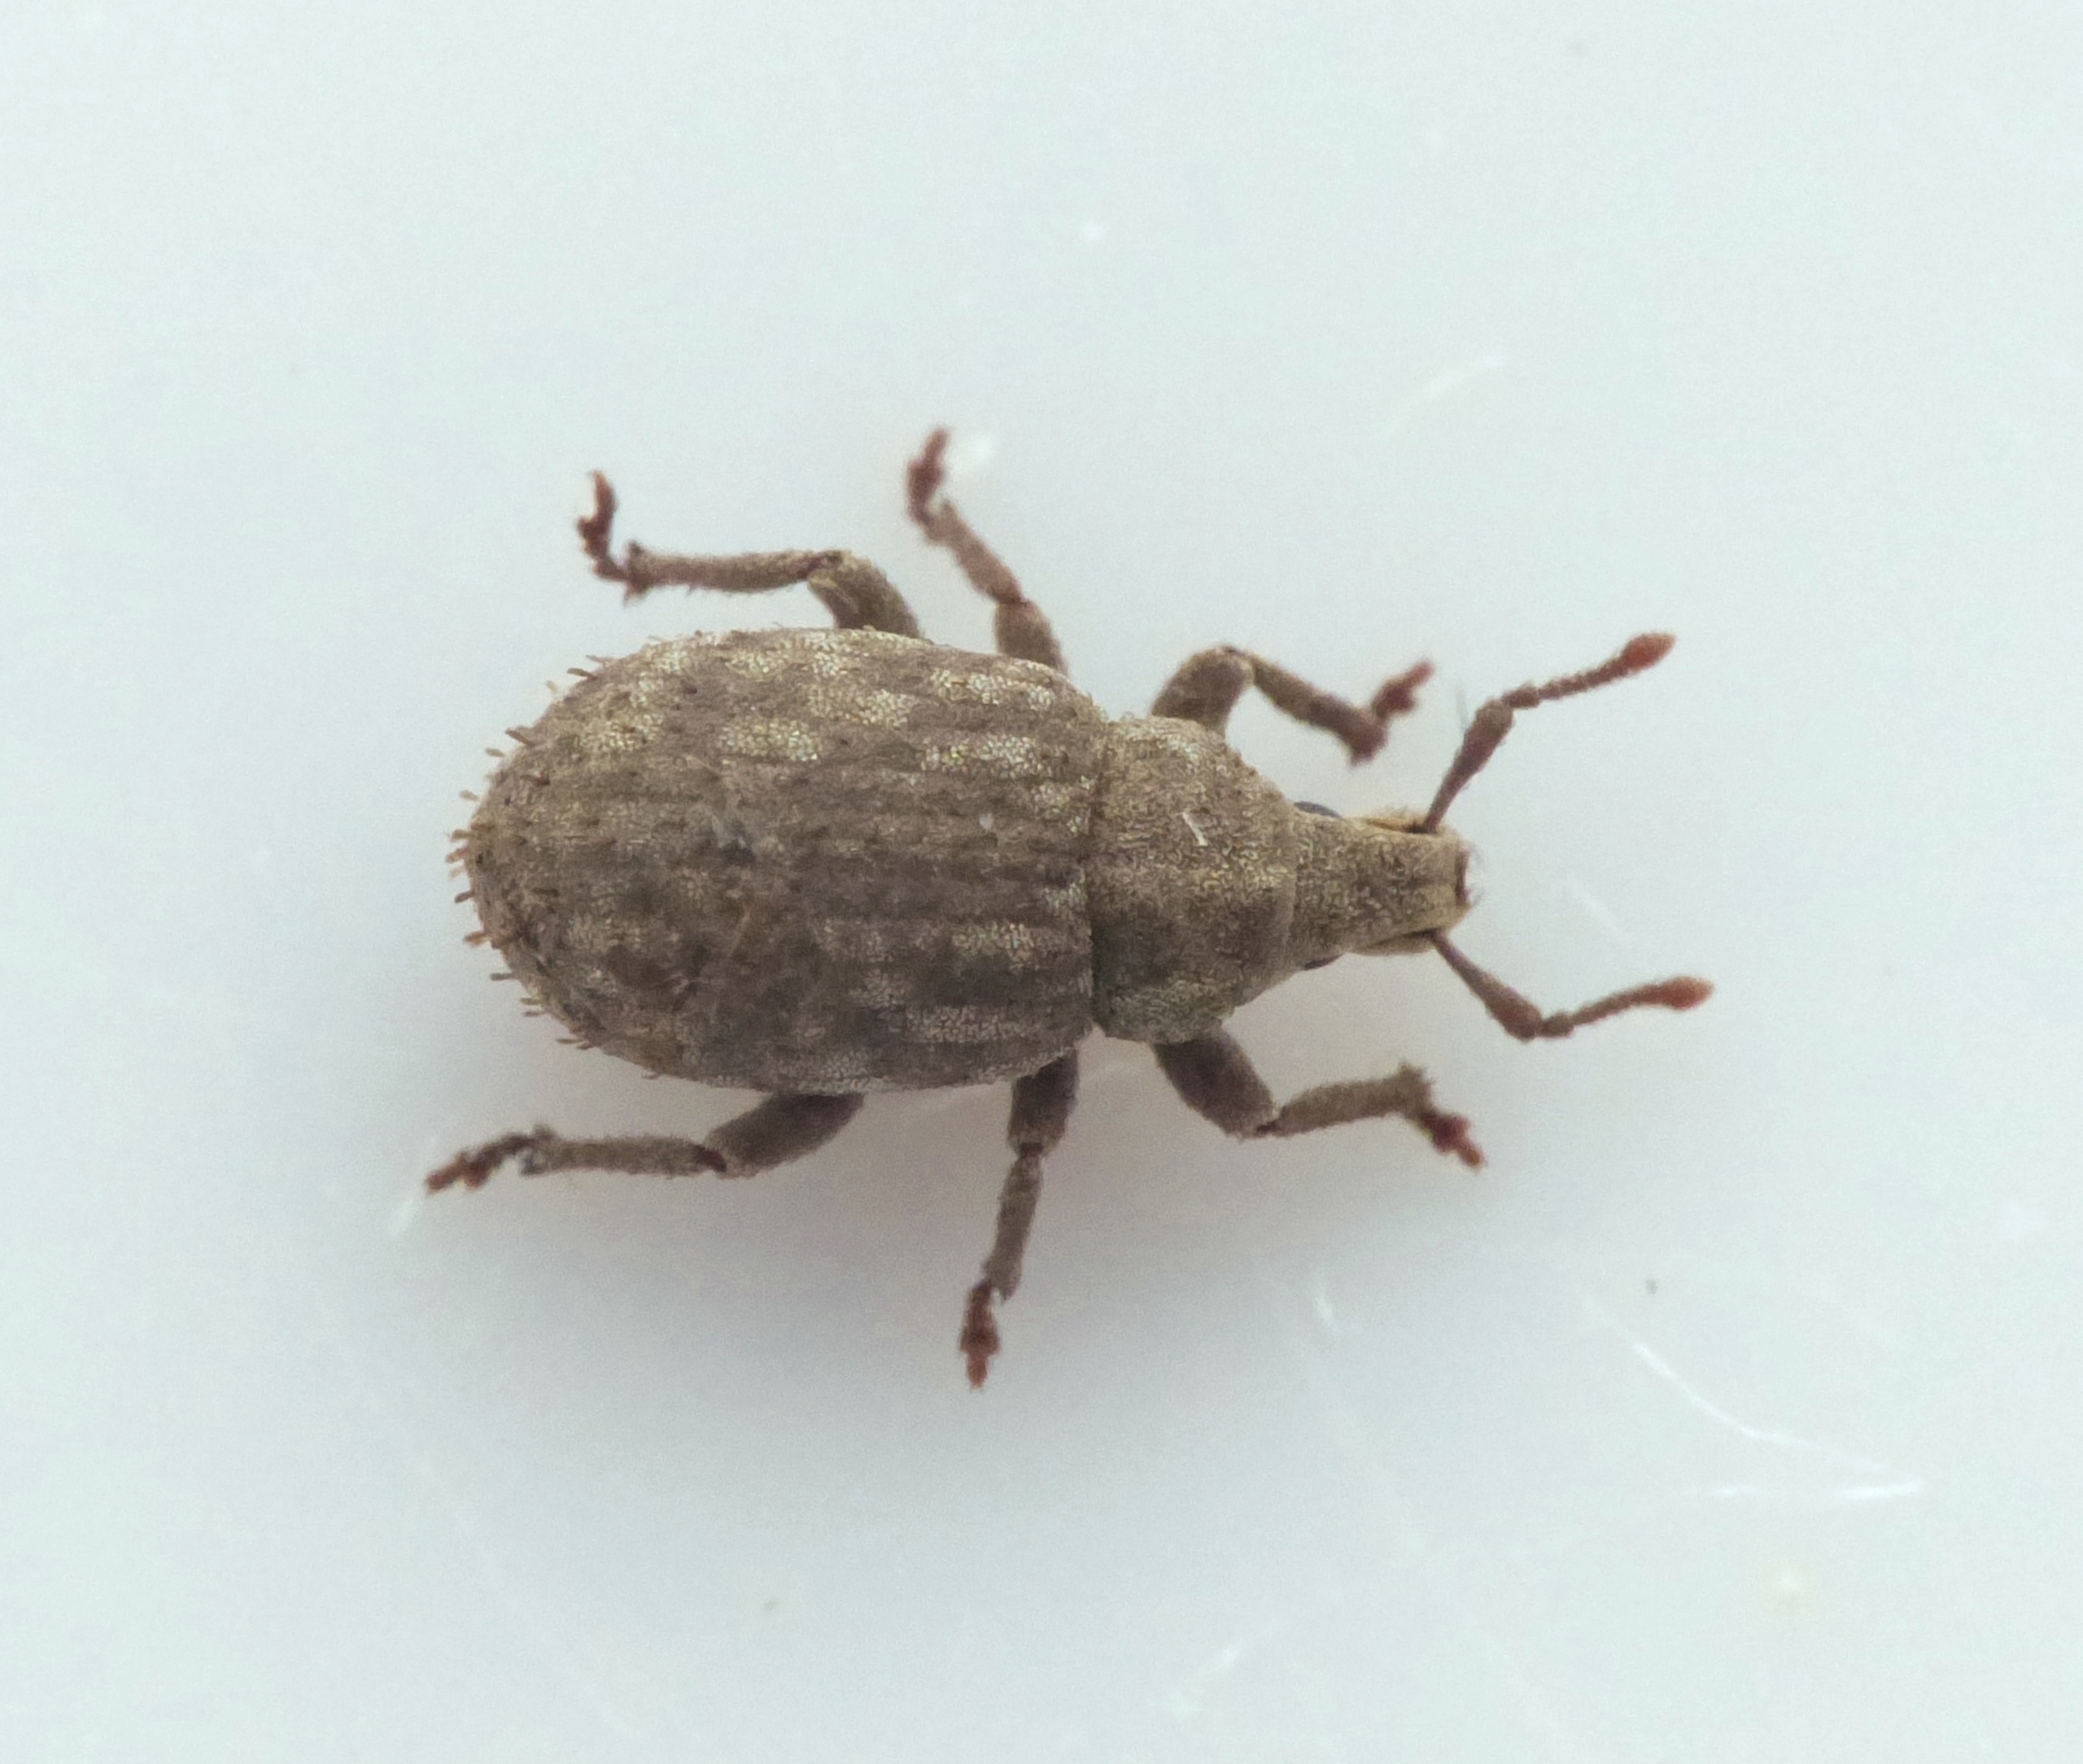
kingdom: Animalia
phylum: Arthropoda
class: Insecta
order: Coleoptera
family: Curculionidae
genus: Romualdius
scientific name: Romualdius scaber
